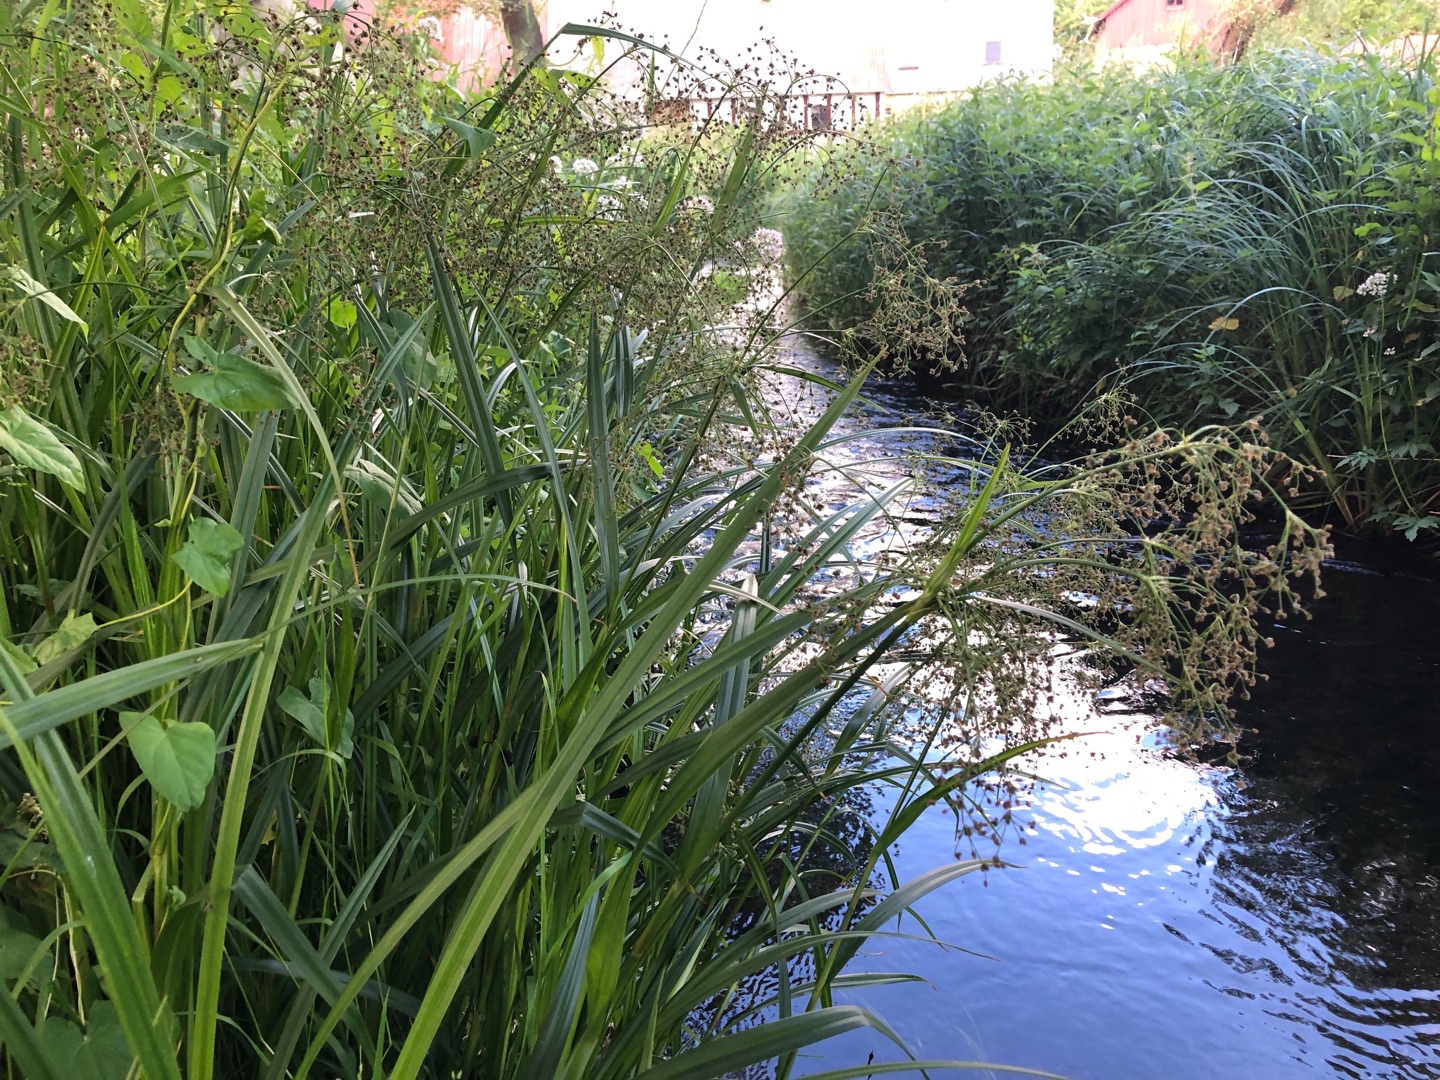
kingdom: Plantae
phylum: Tracheophyta
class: Liliopsida
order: Poales
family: Cyperaceae
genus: Scirpus
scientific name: Scirpus sylvaticus
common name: Skov-kogleaks
